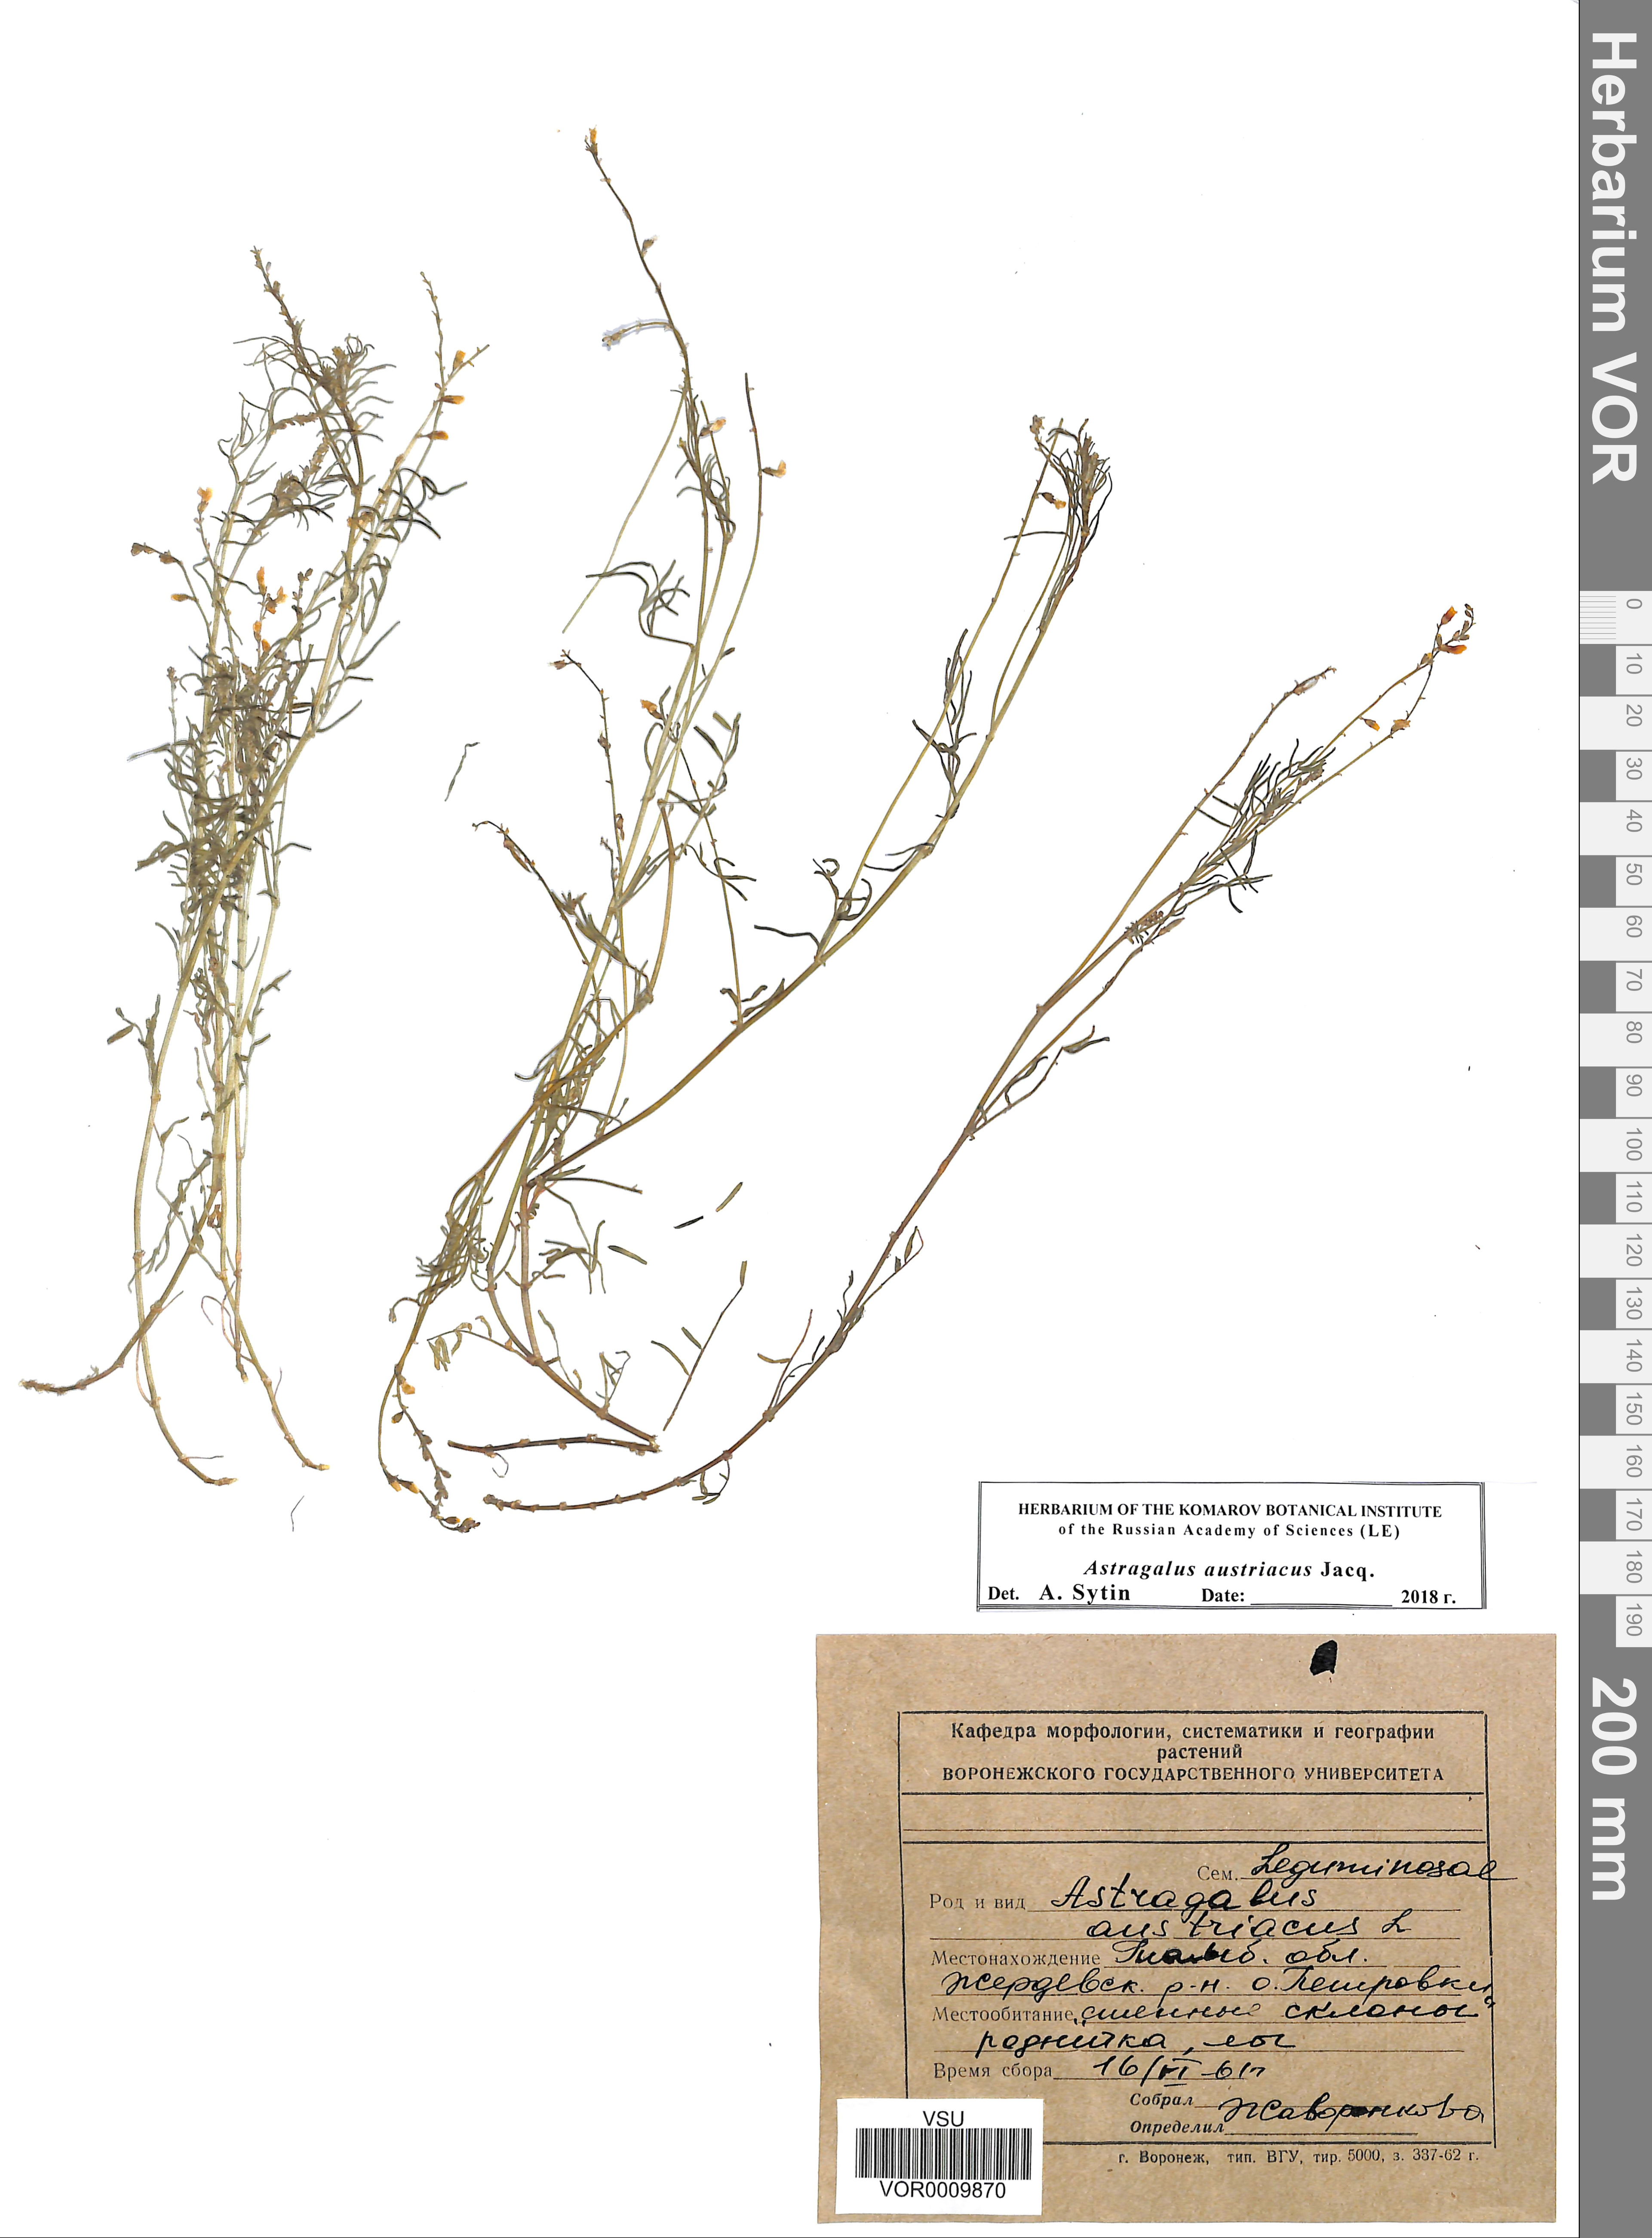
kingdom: Plantae
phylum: Tracheophyta
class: Magnoliopsida
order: Fabales
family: Fabaceae
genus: Astragalus
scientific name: Astragalus austriacus
